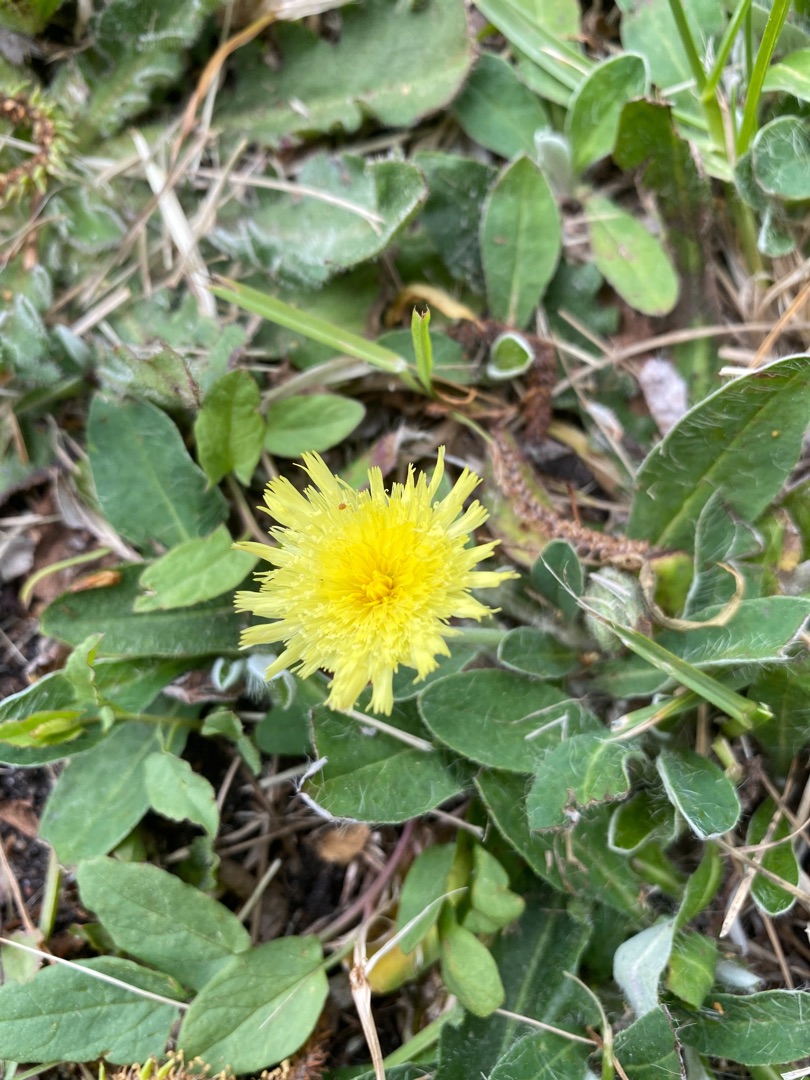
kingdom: Plantae
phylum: Tracheophyta
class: Magnoliopsida
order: Asterales
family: Asteraceae
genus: Pilosella
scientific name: Pilosella officinarum
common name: Håret høgeurt
